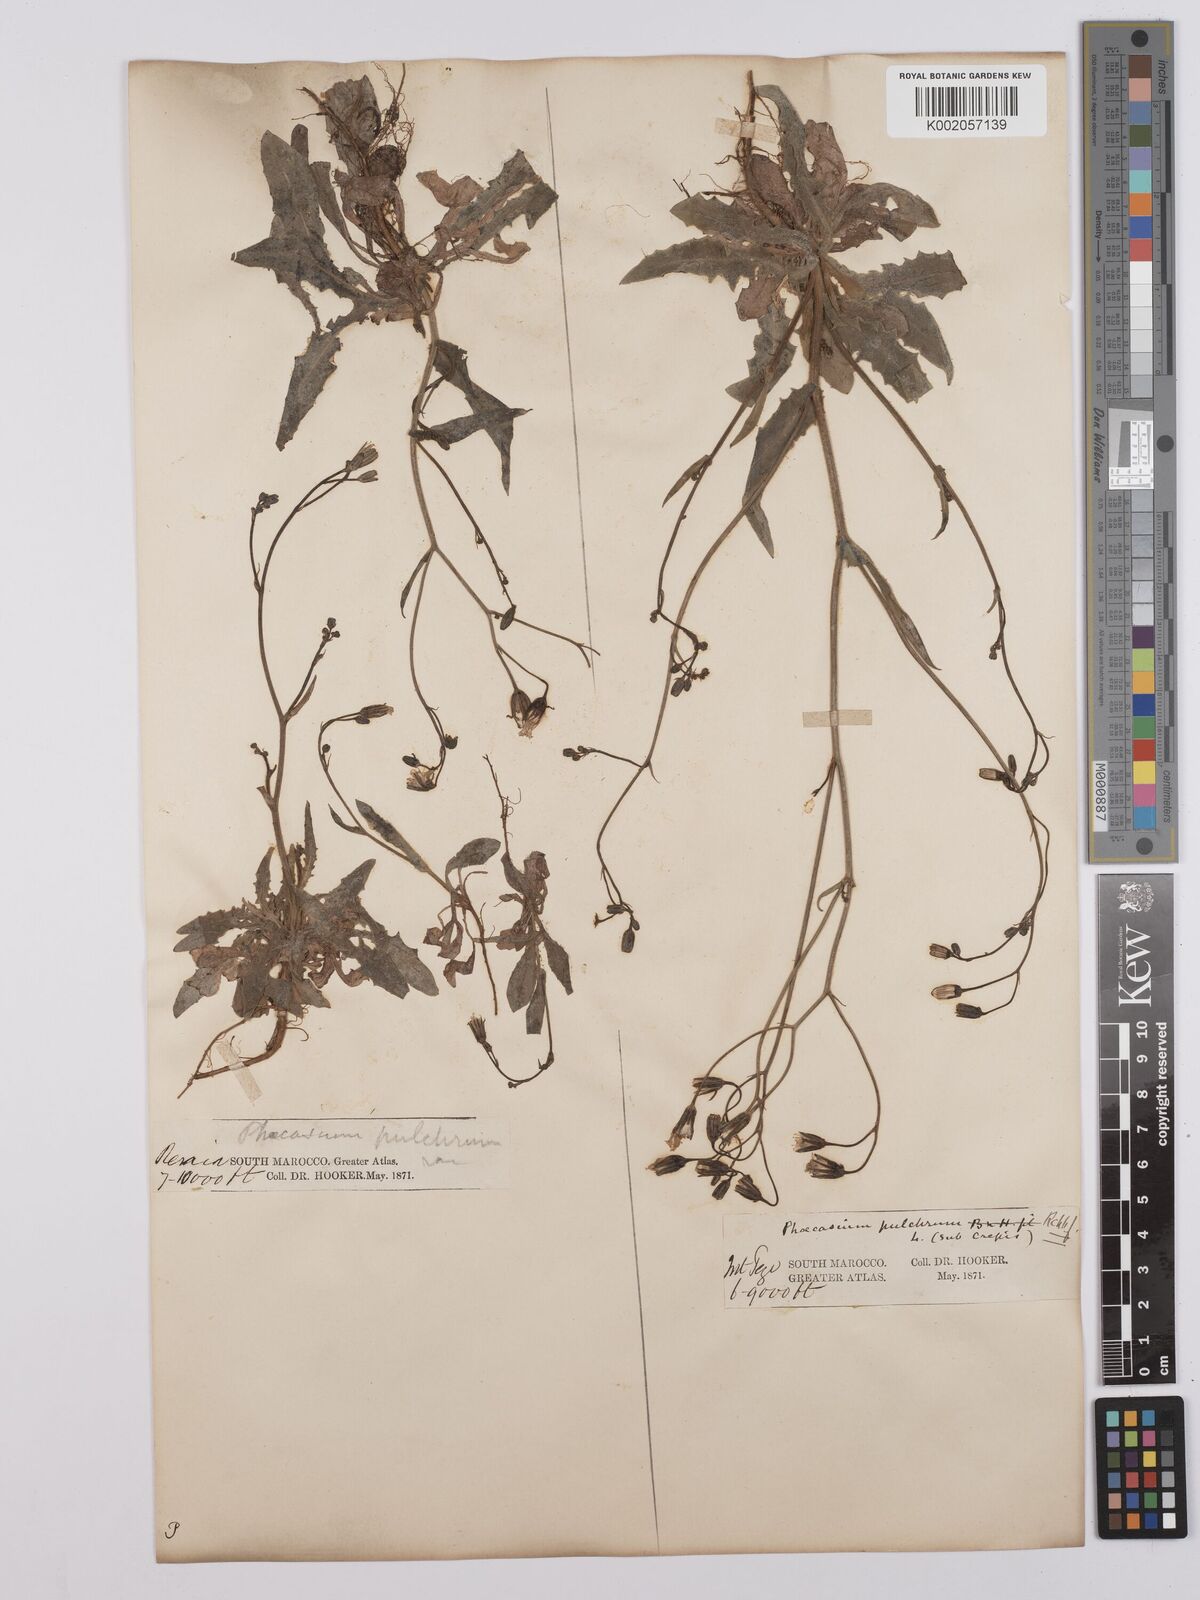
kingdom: Plantae
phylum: Tracheophyta
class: Magnoliopsida
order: Asterales
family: Asteraceae
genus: Crepis
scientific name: Crepis pulchra
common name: Hawk's-beard
